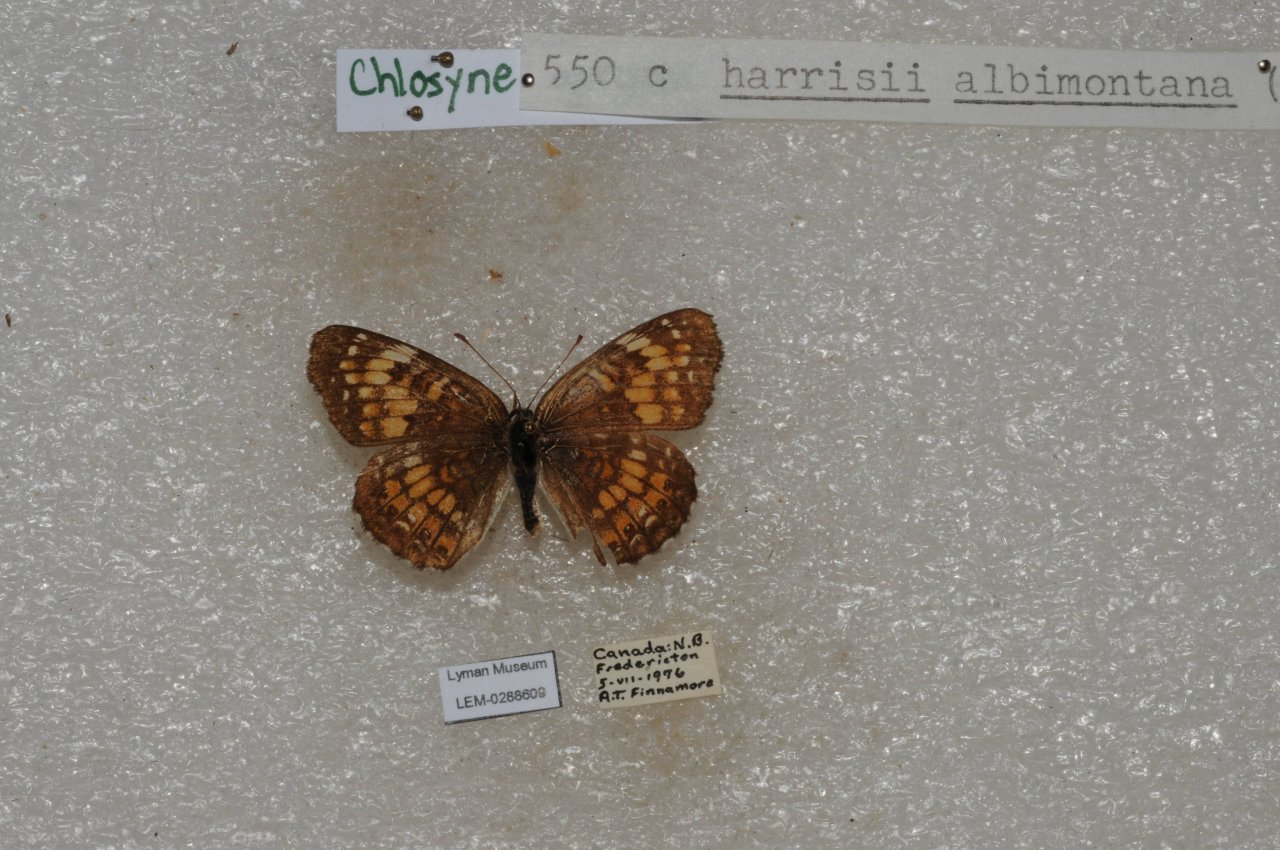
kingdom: Animalia
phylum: Arthropoda
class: Insecta
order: Lepidoptera
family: Nymphalidae
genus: Chlosyne
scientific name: Chlosyne harrisii
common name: Harris's Checkerspot
